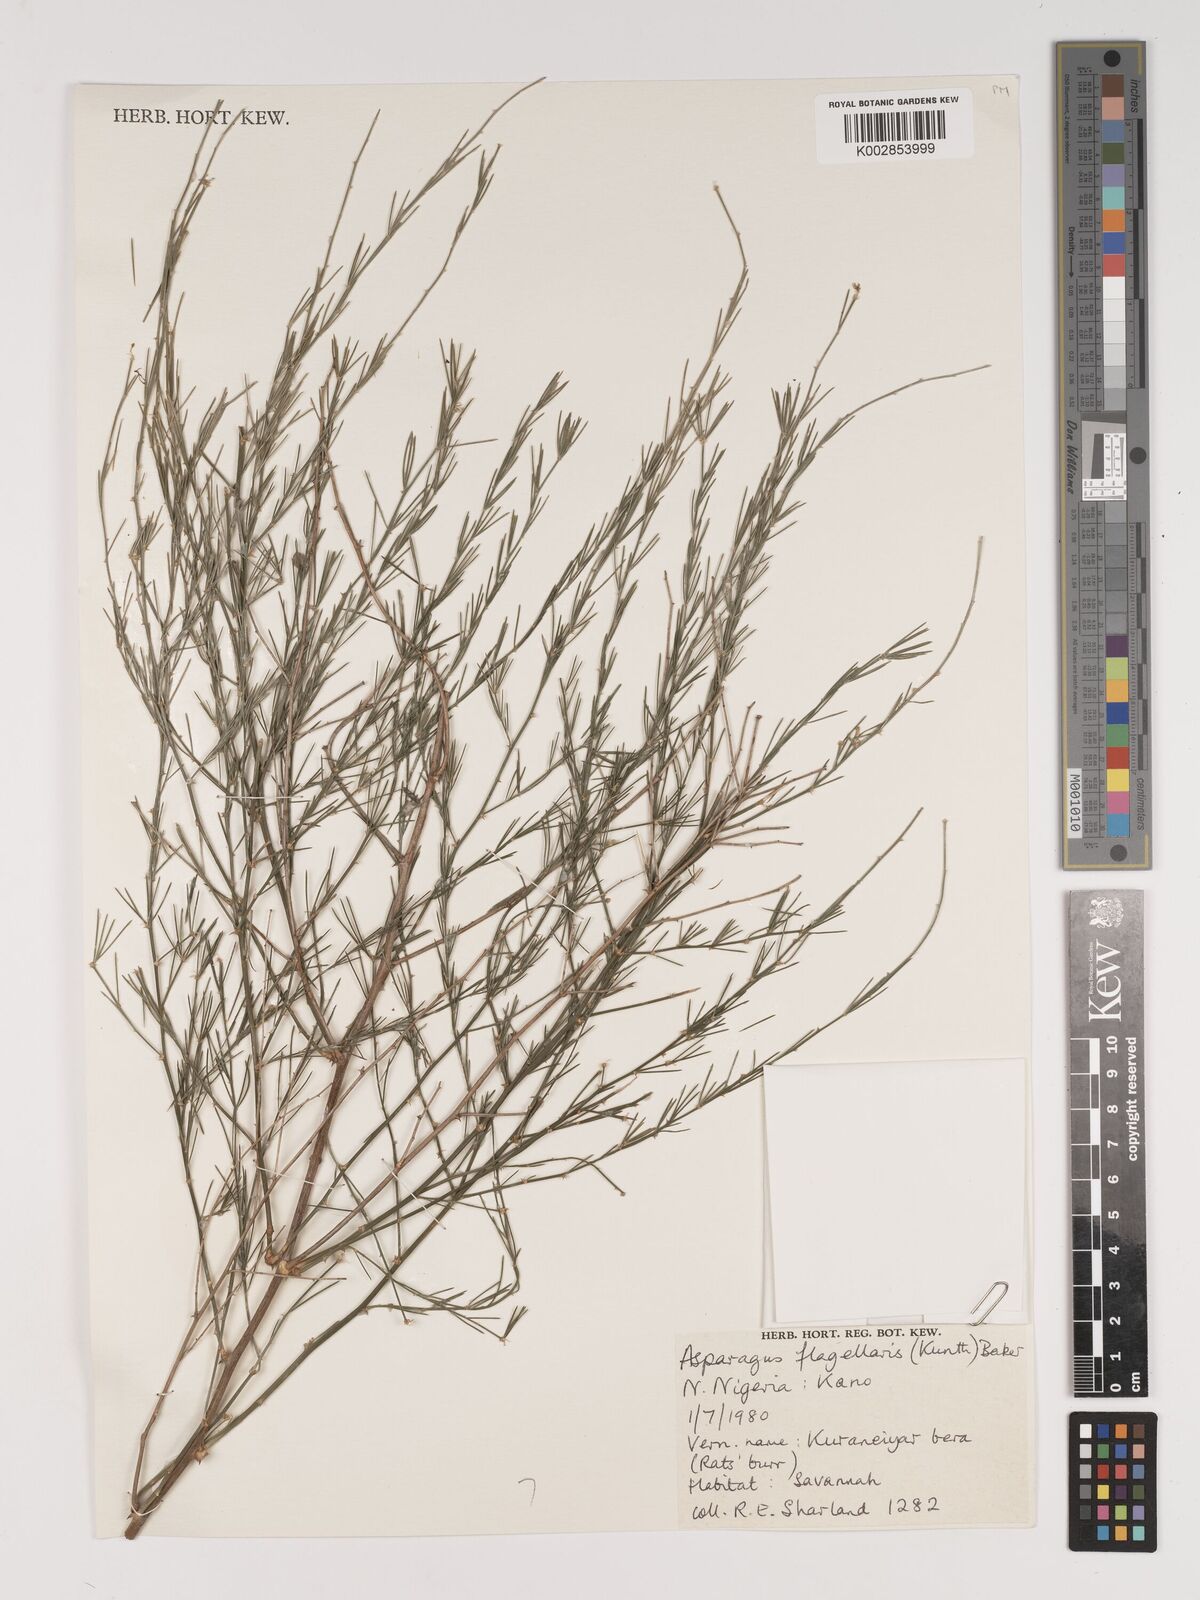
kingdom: Plantae
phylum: Tracheophyta
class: Liliopsida
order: Asparagales
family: Asparagaceae
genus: Asparagus
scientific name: Asparagus flagellaris
